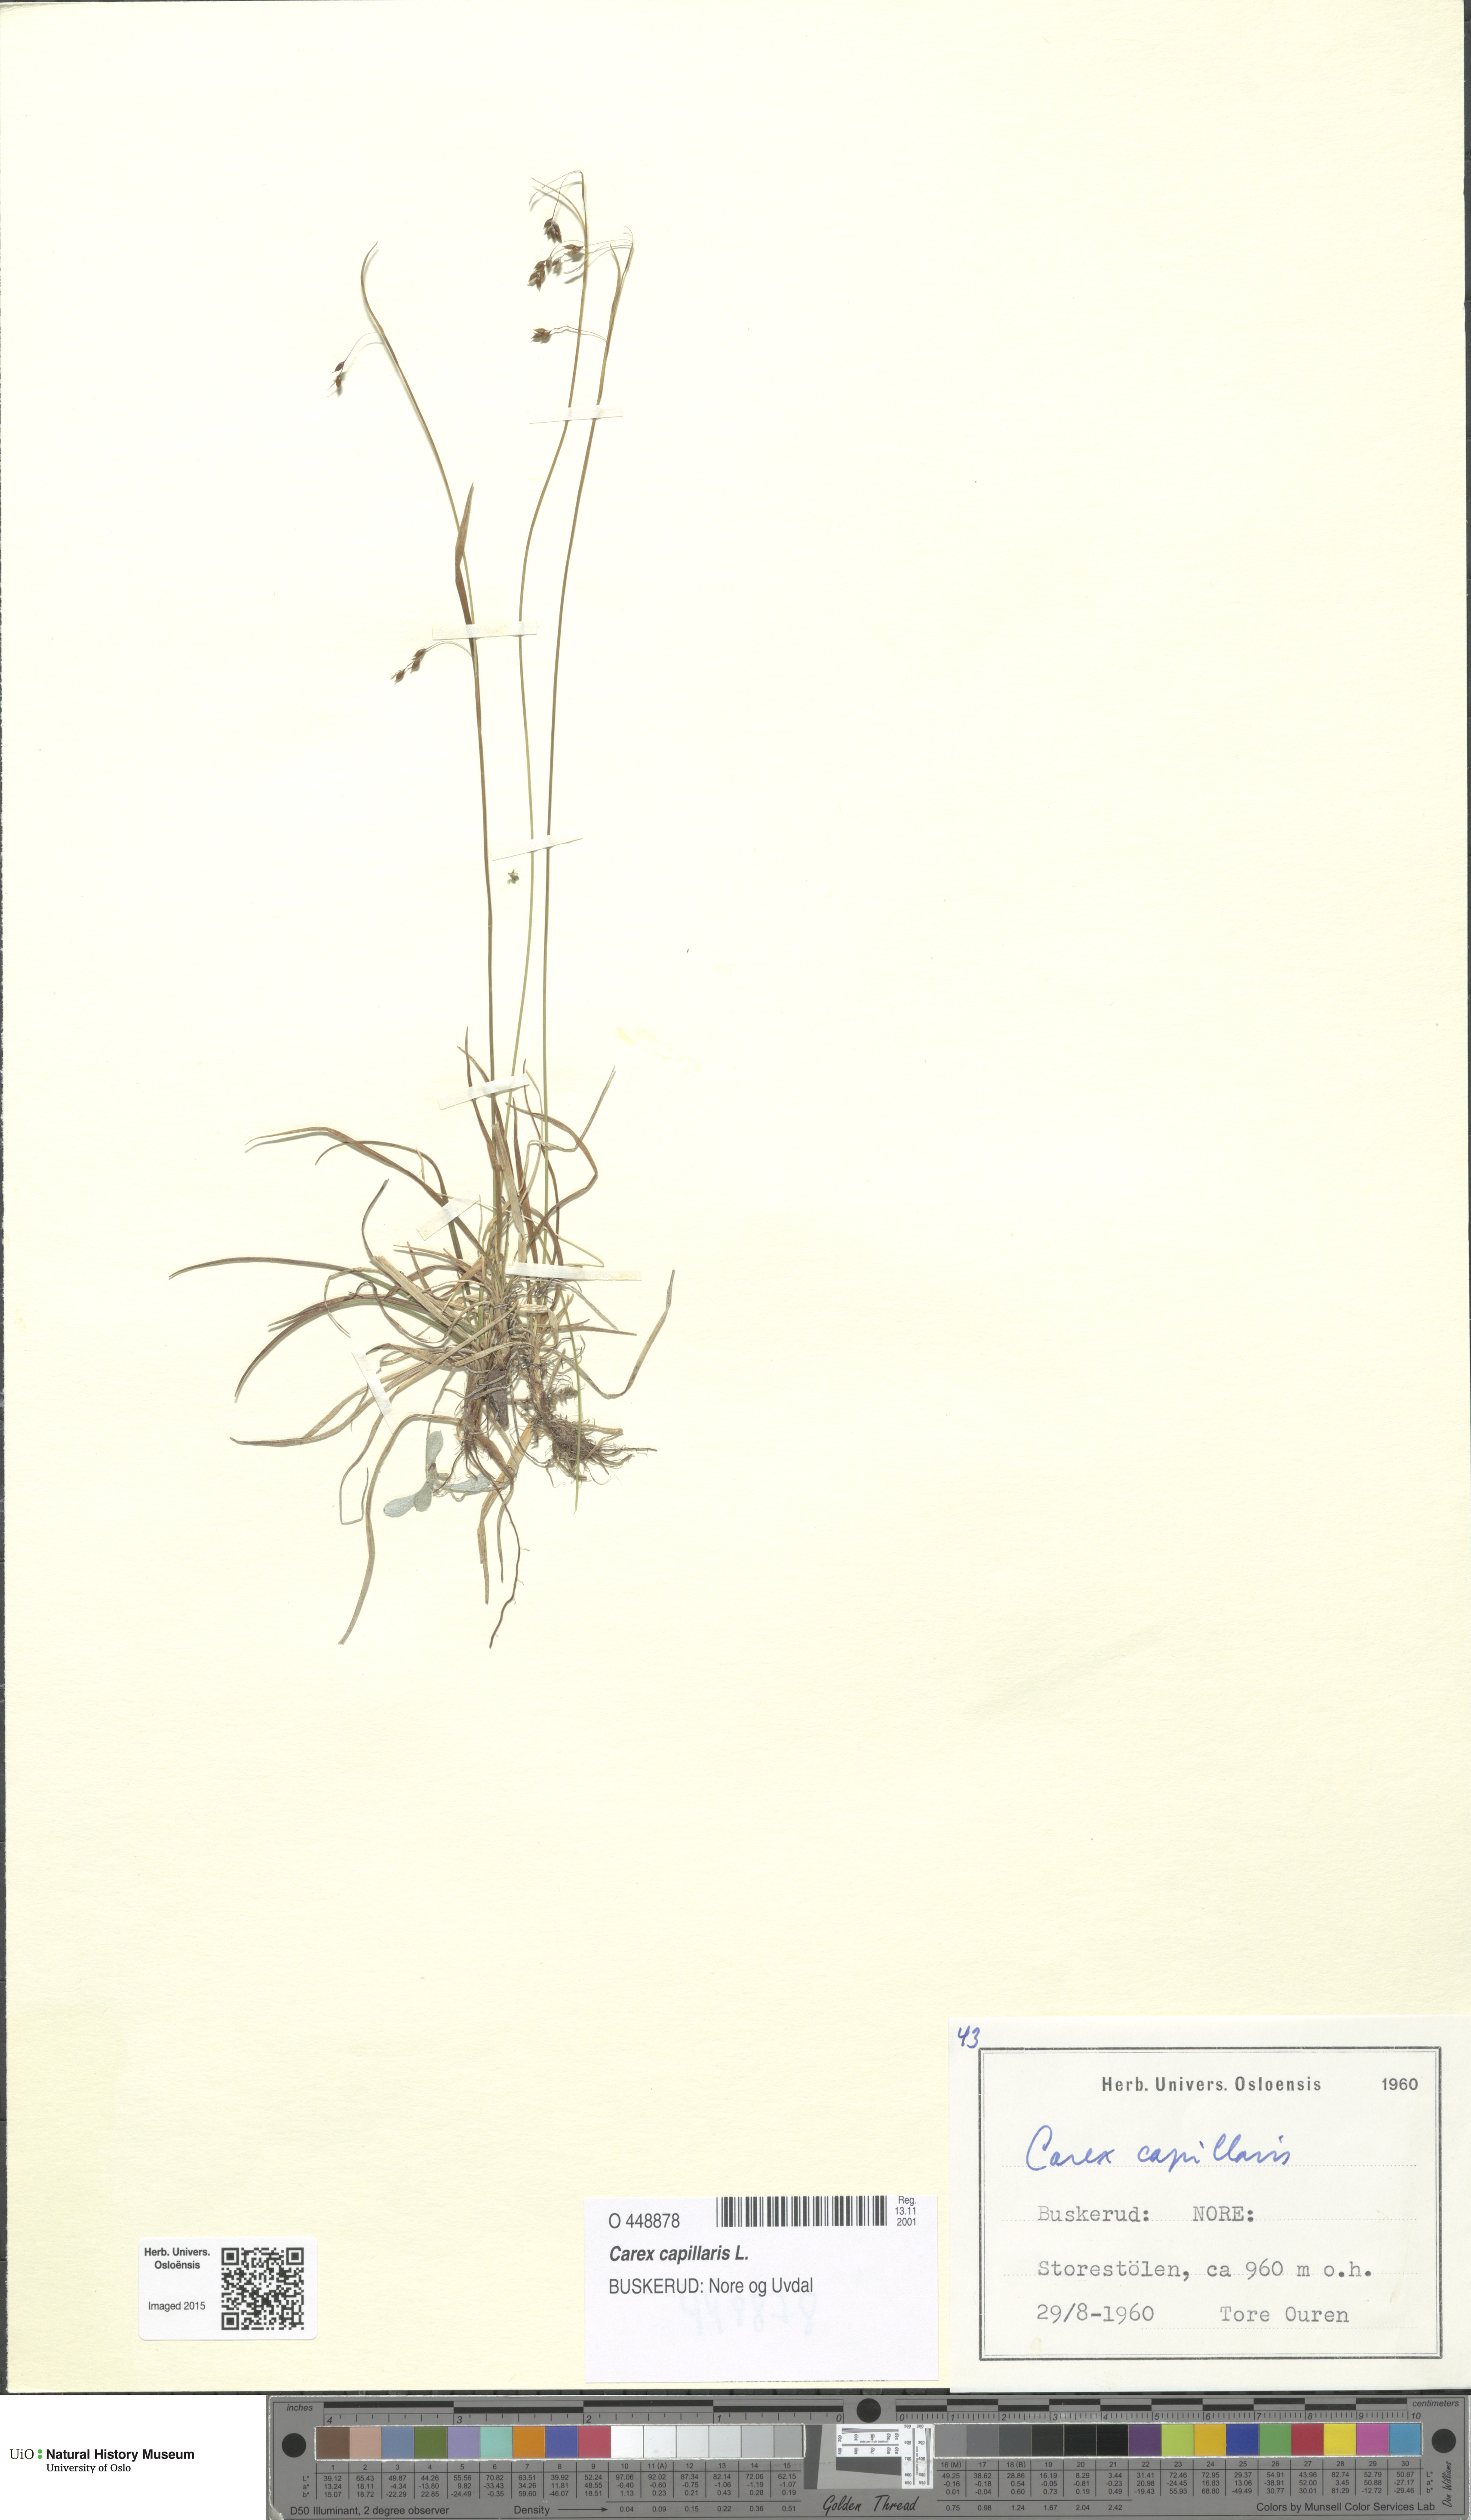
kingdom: Plantae
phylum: Tracheophyta
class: Liliopsida
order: Poales
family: Cyperaceae
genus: Carex
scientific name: Carex capillaris
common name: Hair sedge
